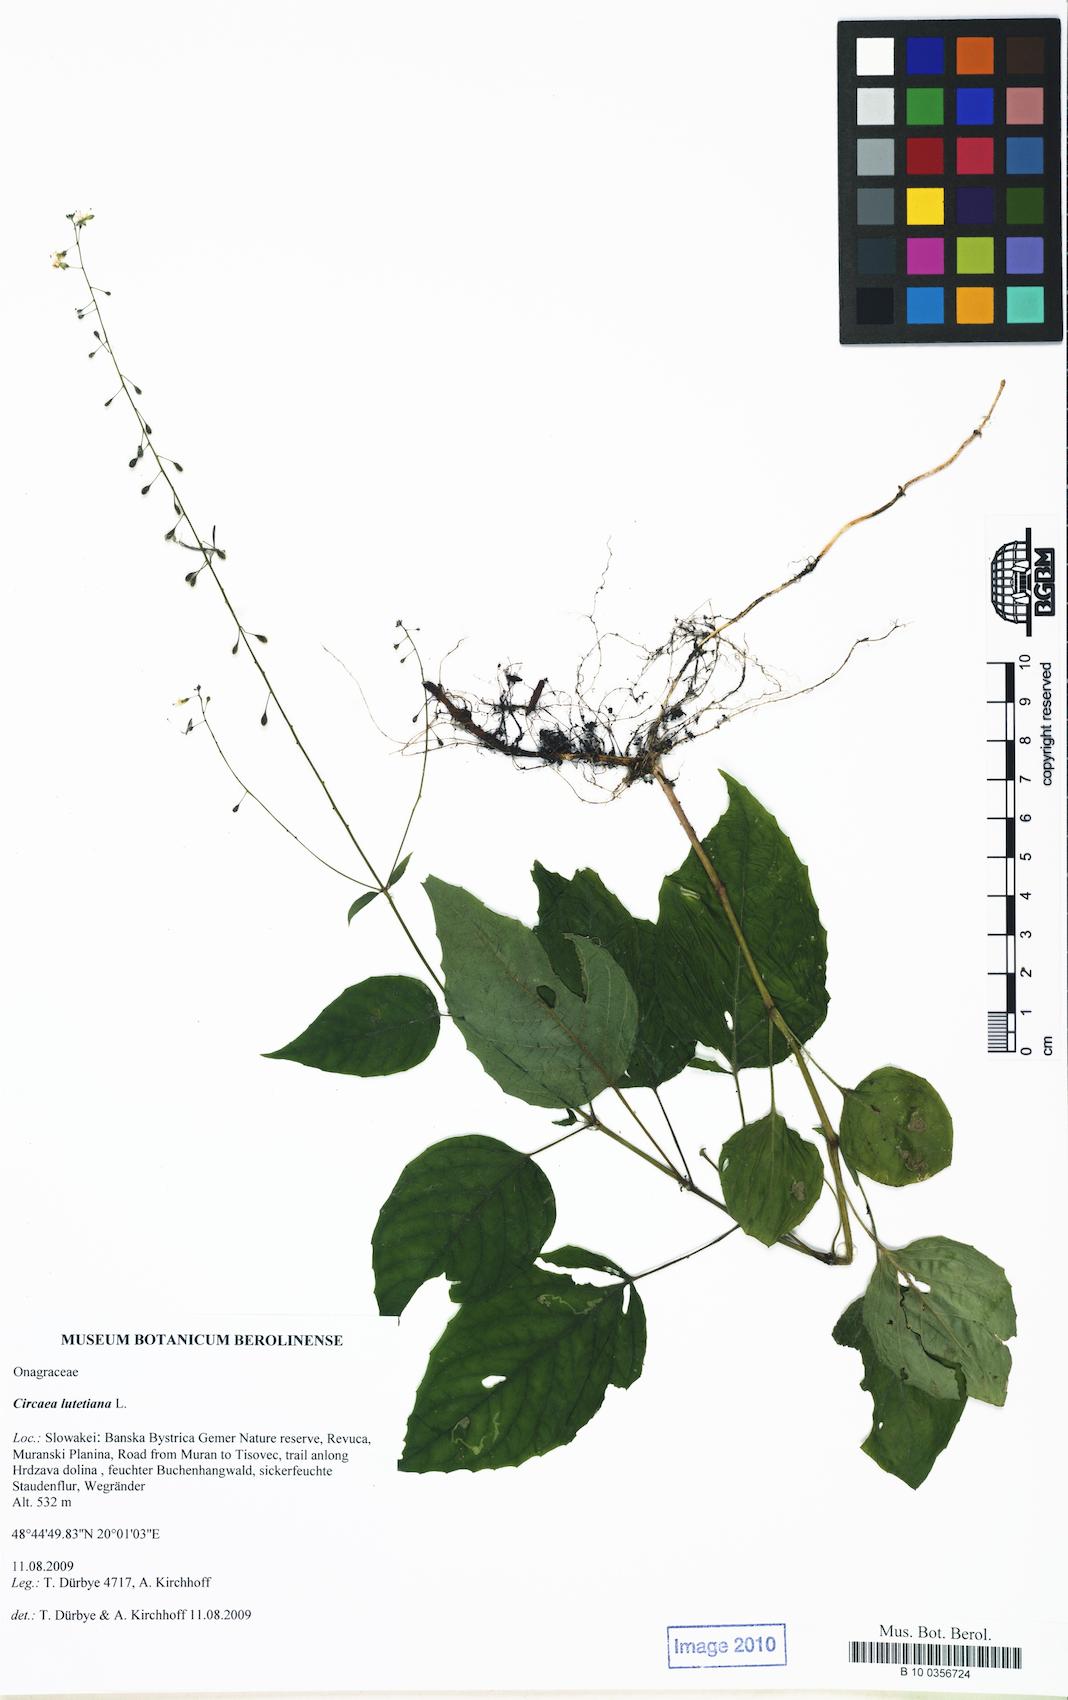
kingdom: Plantae
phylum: Tracheophyta
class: Magnoliopsida
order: Myrtales
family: Onagraceae
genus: Circaea
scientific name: Circaea lutetiana
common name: Enchanter's-nightshade
